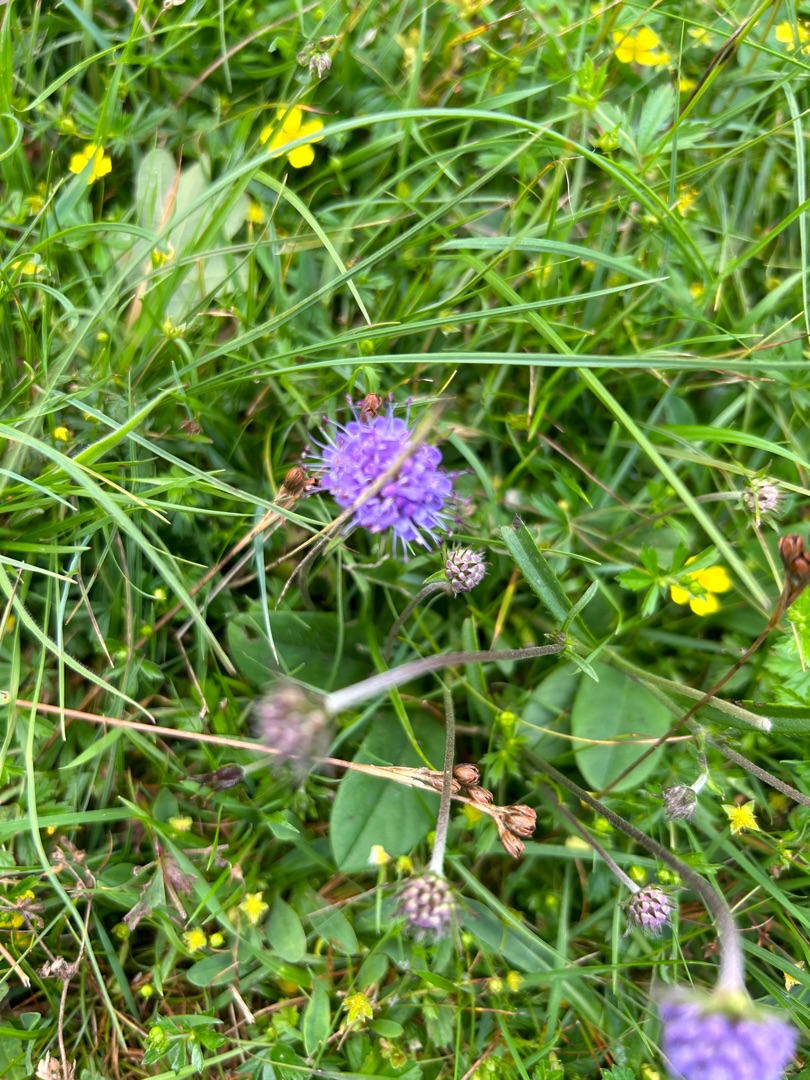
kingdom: Plantae
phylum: Tracheophyta
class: Magnoliopsida
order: Dipsacales
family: Caprifoliaceae
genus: Succisa
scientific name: Succisa pratensis
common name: Djævelsbid
